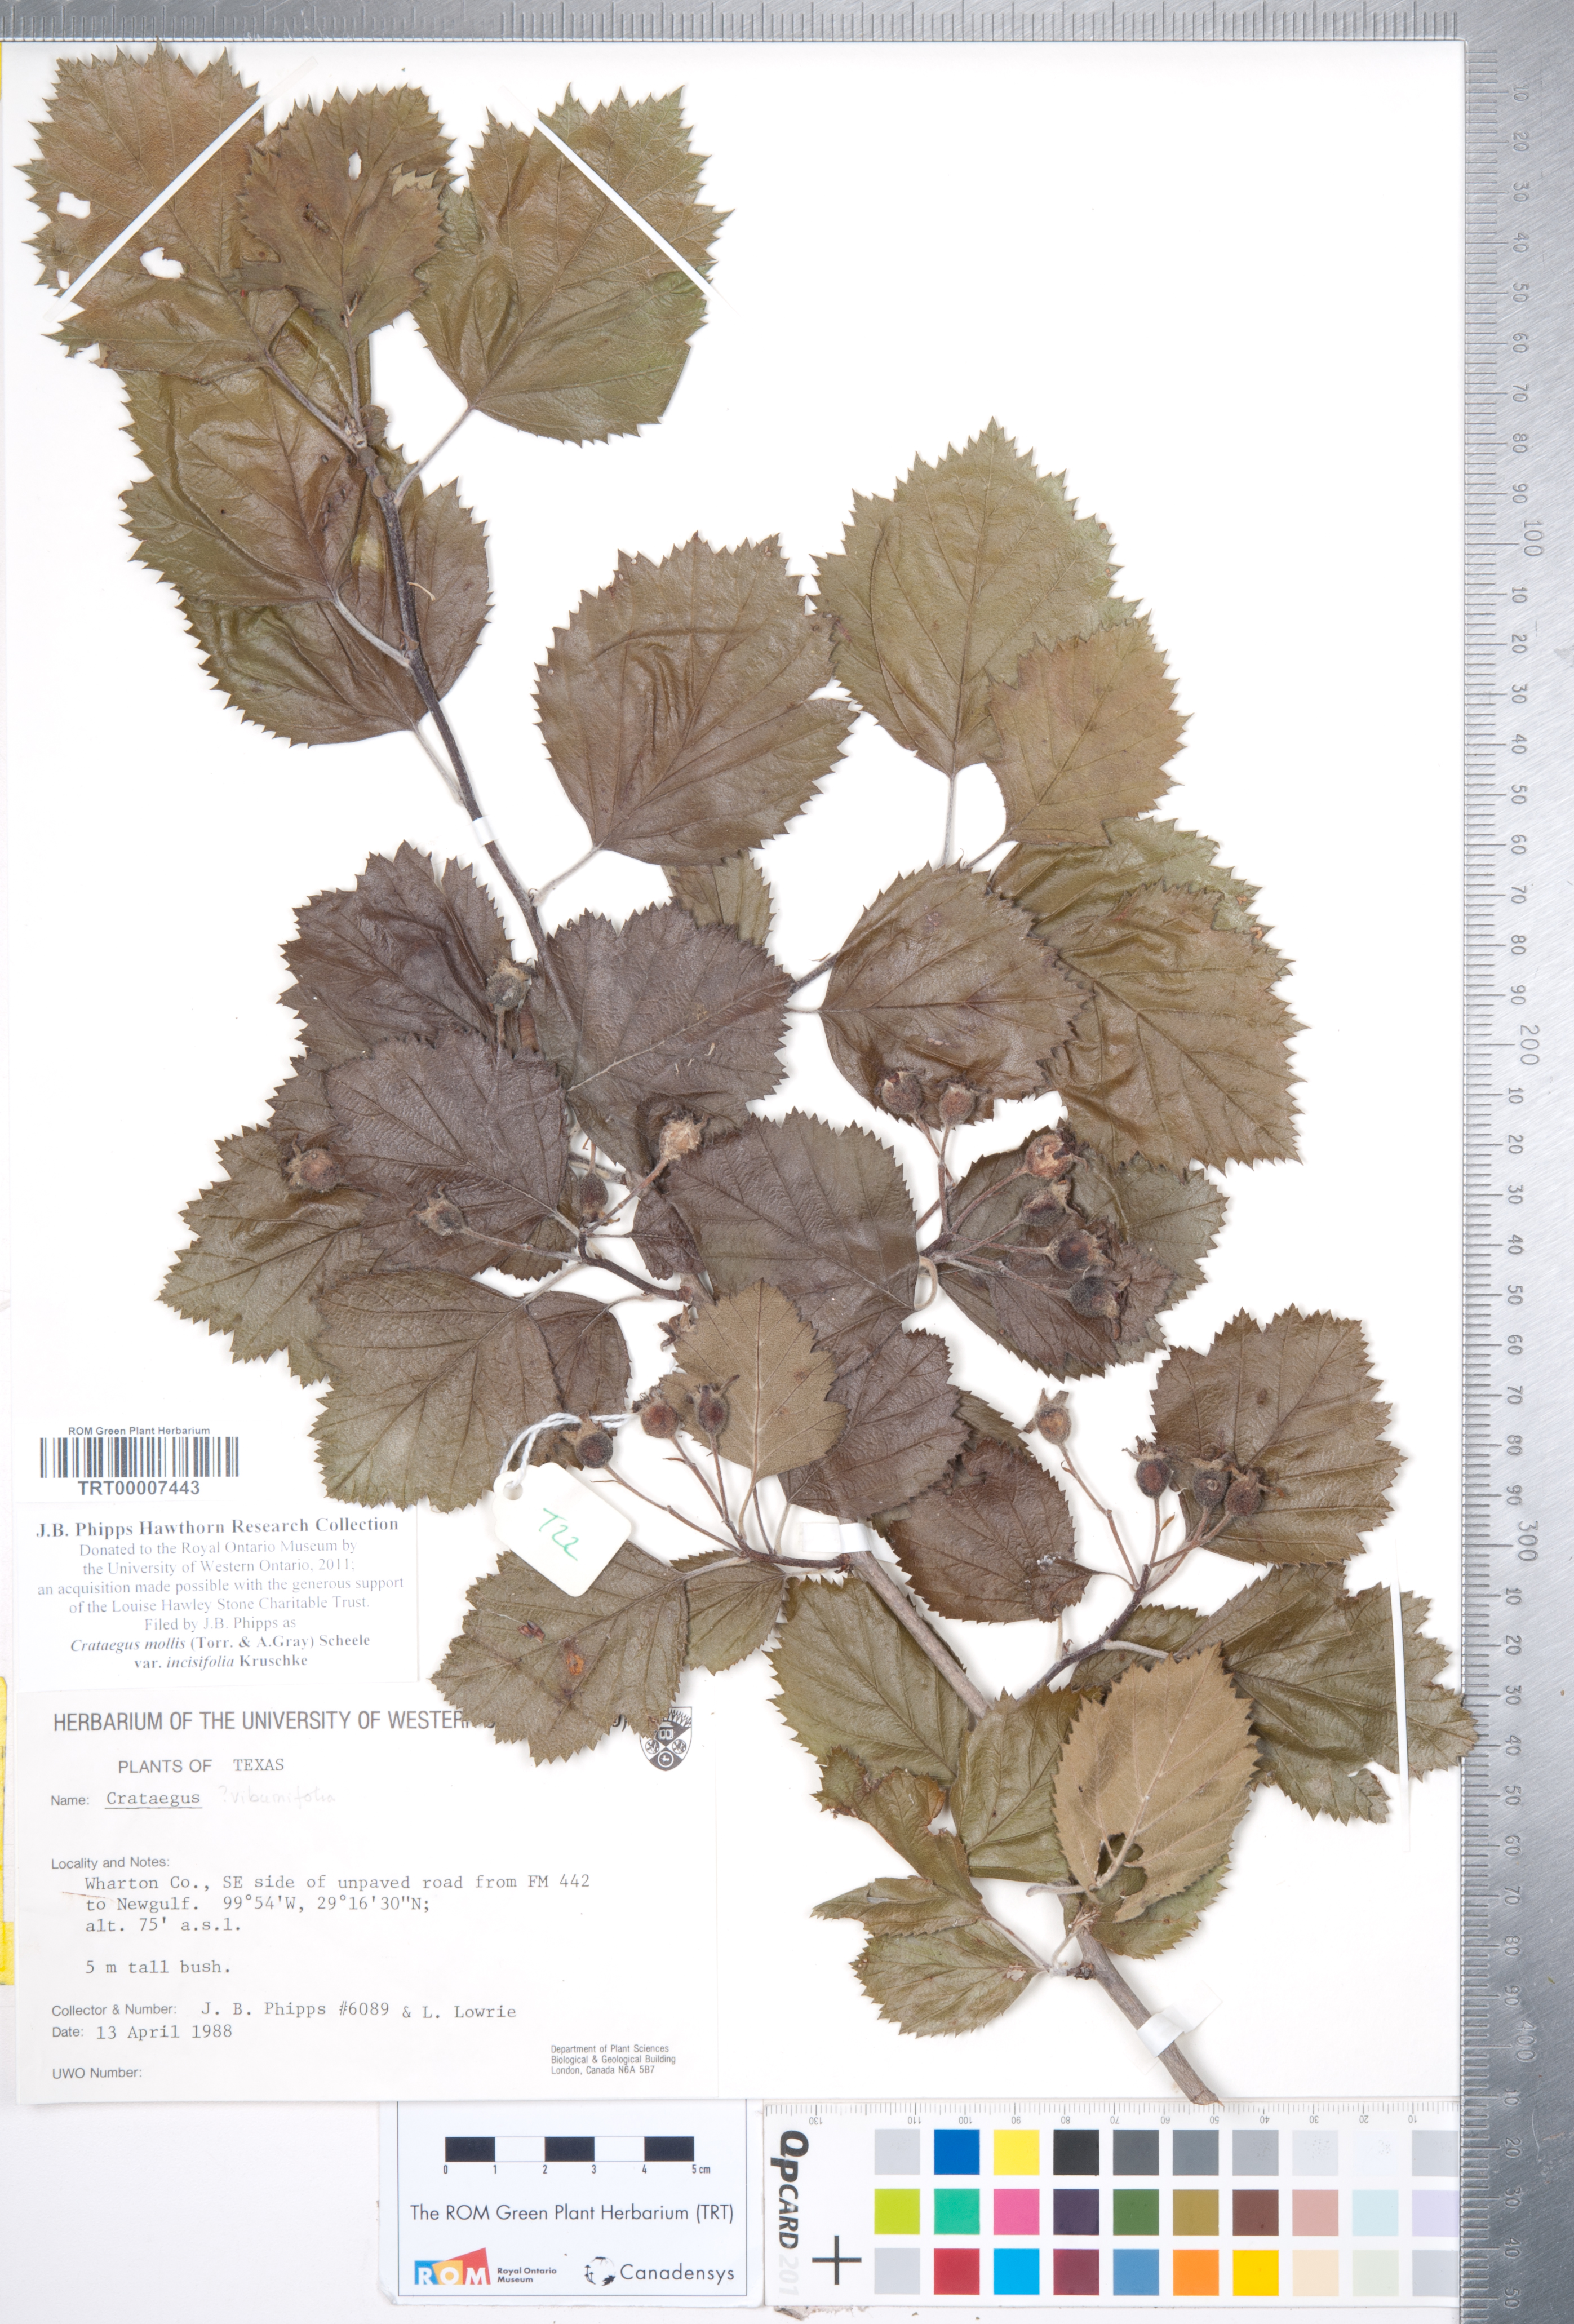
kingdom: Plantae
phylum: Tracheophyta
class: Magnoliopsida
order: Rosales
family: Rosaceae
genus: Crataegus
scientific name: Crataegus mollis
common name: Downy hawthorn
